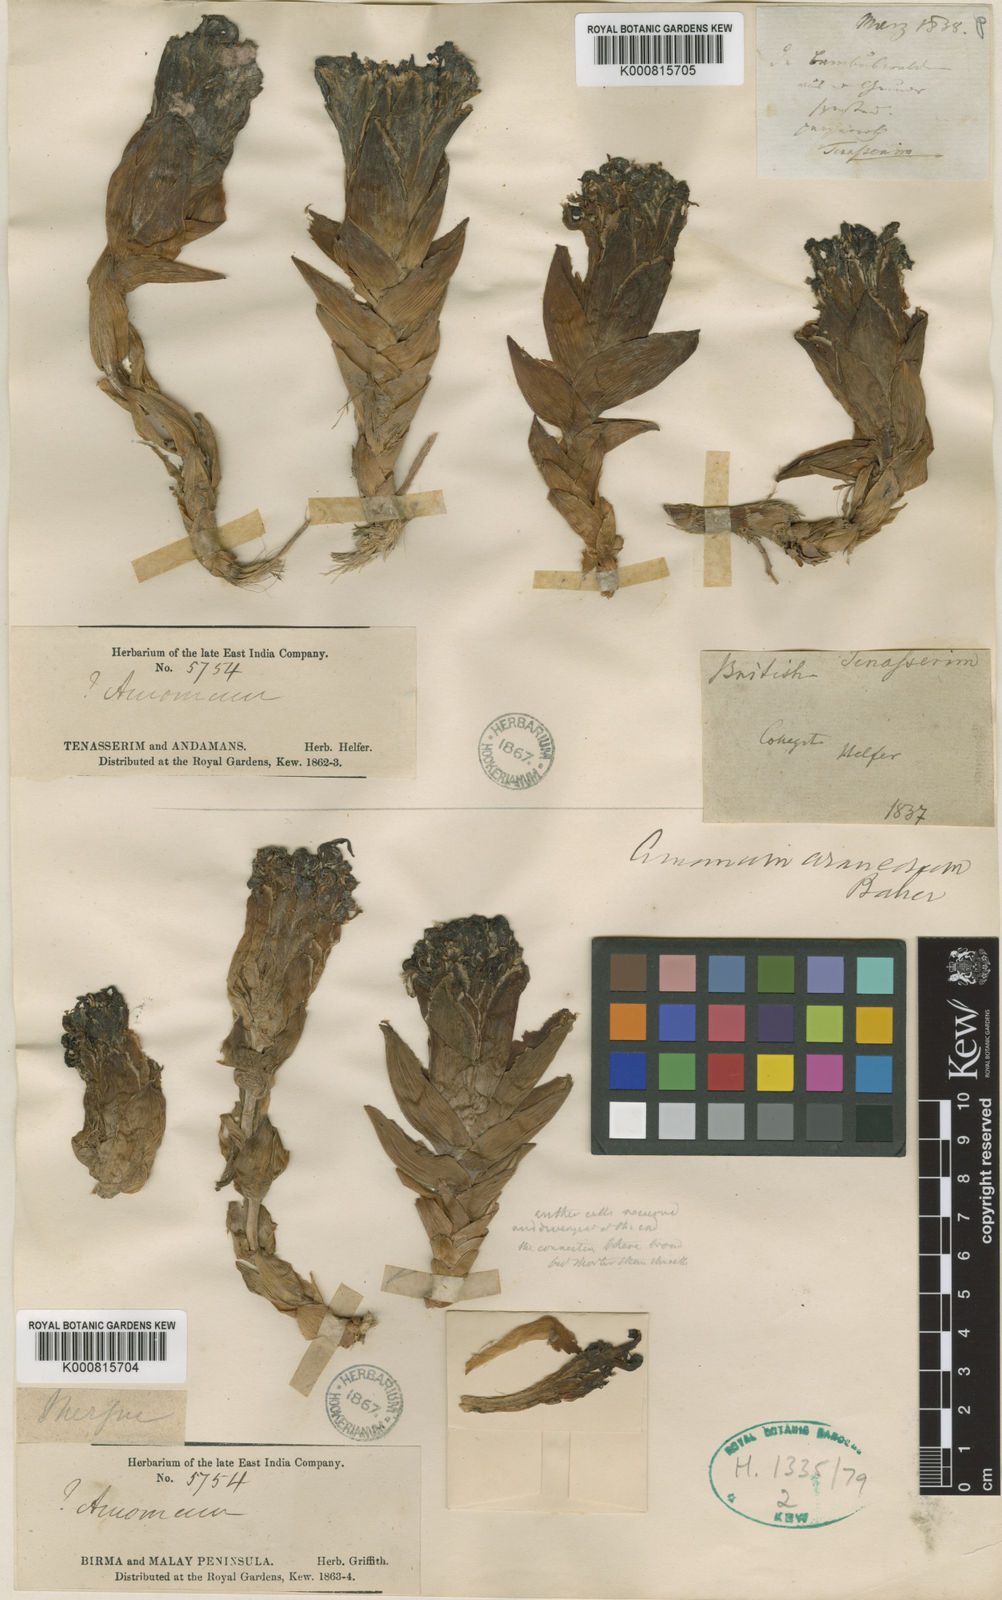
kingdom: Plantae
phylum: Tracheophyta
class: Liliopsida
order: Zingiberales
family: Zingiberaceae
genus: Etlingera
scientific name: Etlingera araneosa
